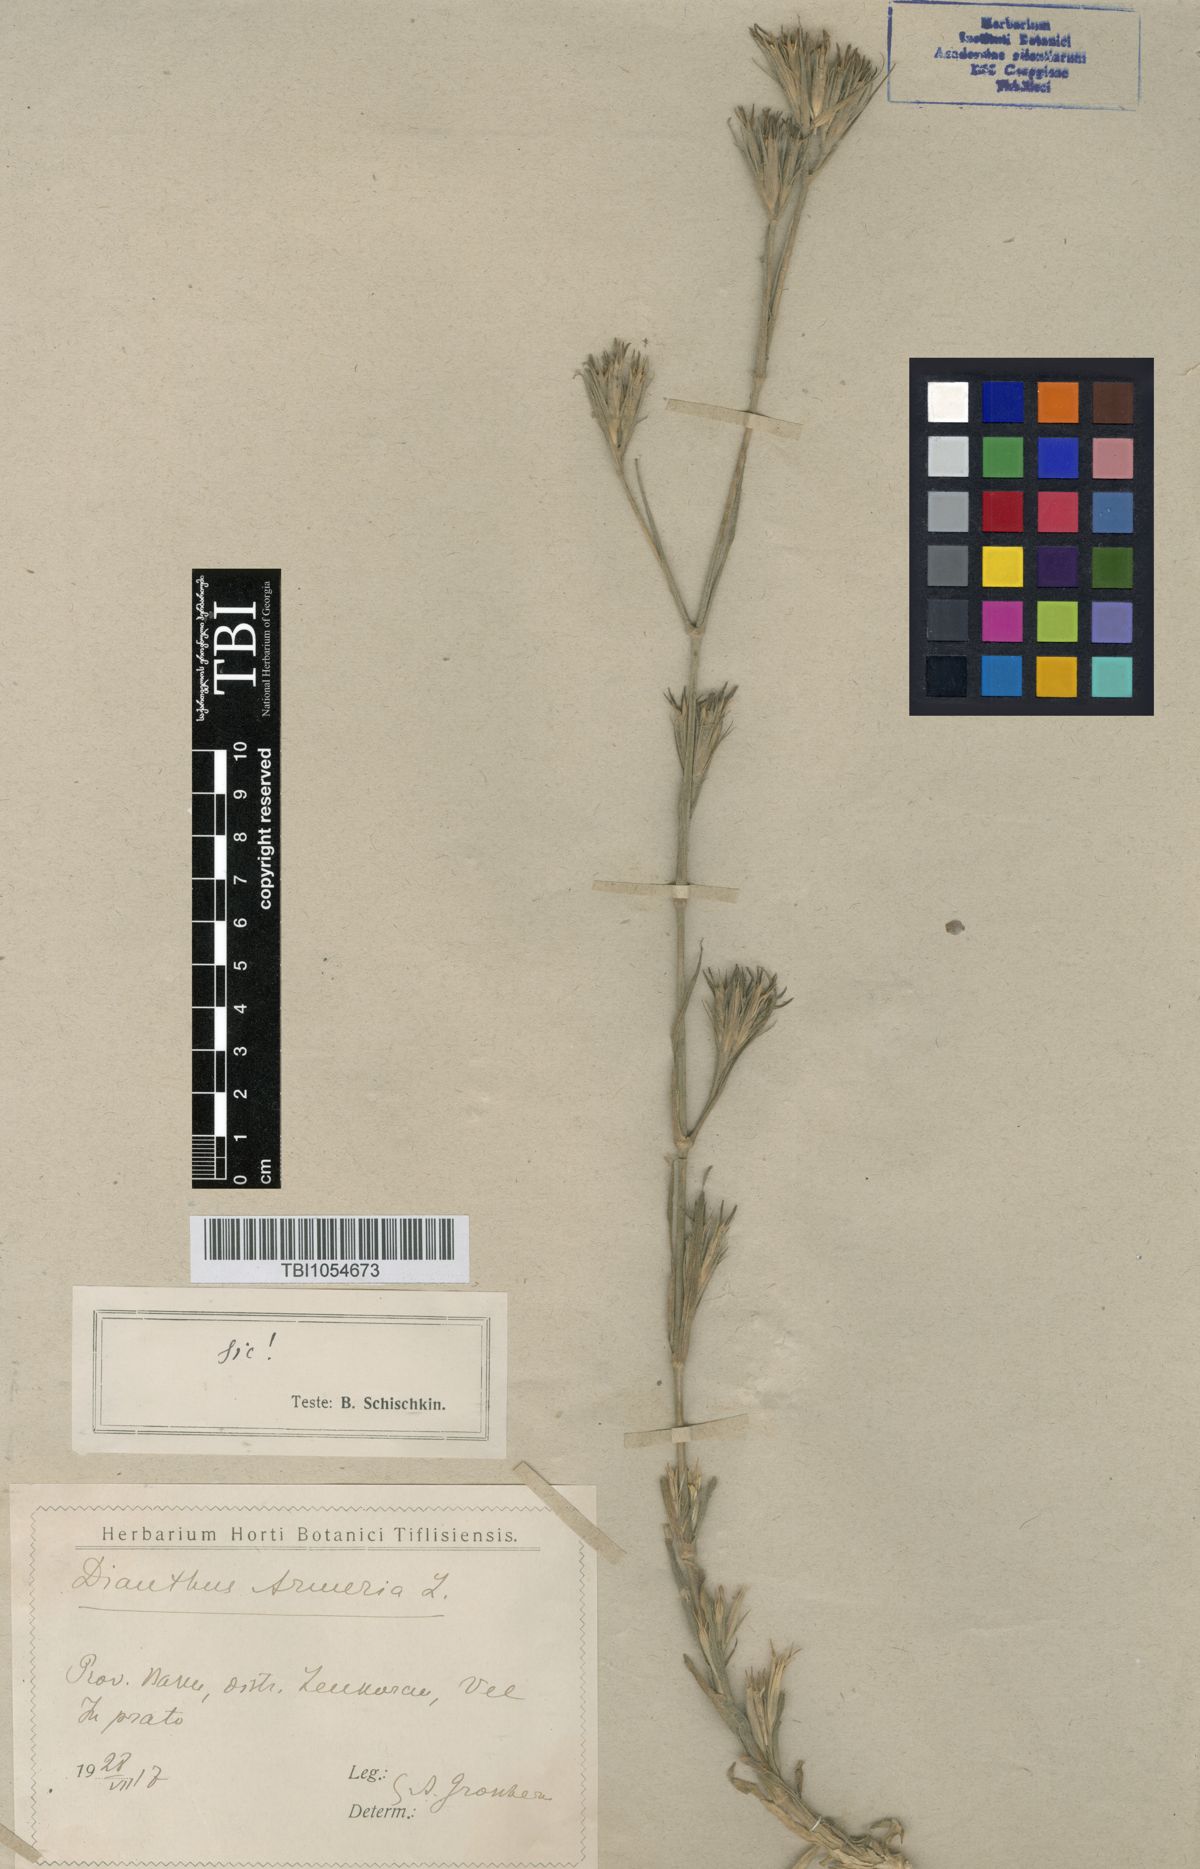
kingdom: Plantae
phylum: Tracheophyta
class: Magnoliopsida
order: Caryophyllales
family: Caryophyllaceae
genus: Dianthus
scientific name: Dianthus armeria
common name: Deptford pink
